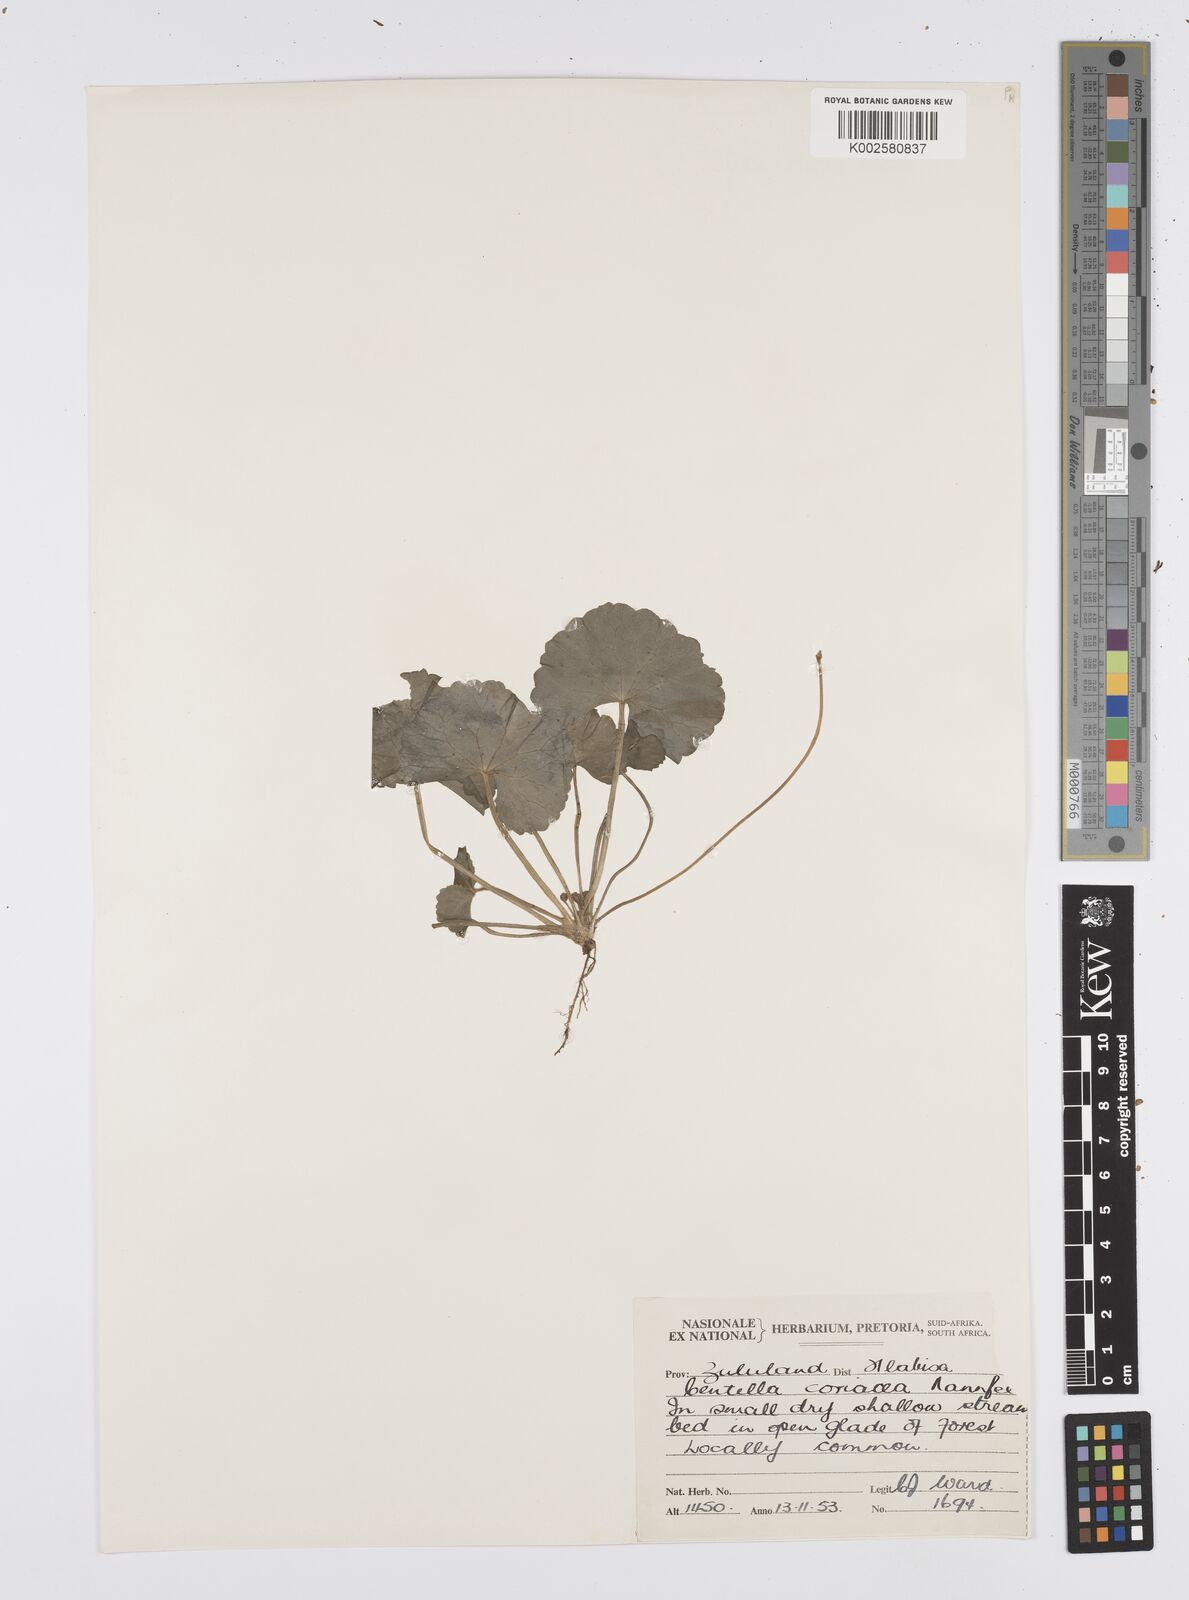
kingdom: Plantae
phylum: Tracheophyta
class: Magnoliopsida
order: Apiales
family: Apiaceae
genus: Centella
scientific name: Centella coriacea
